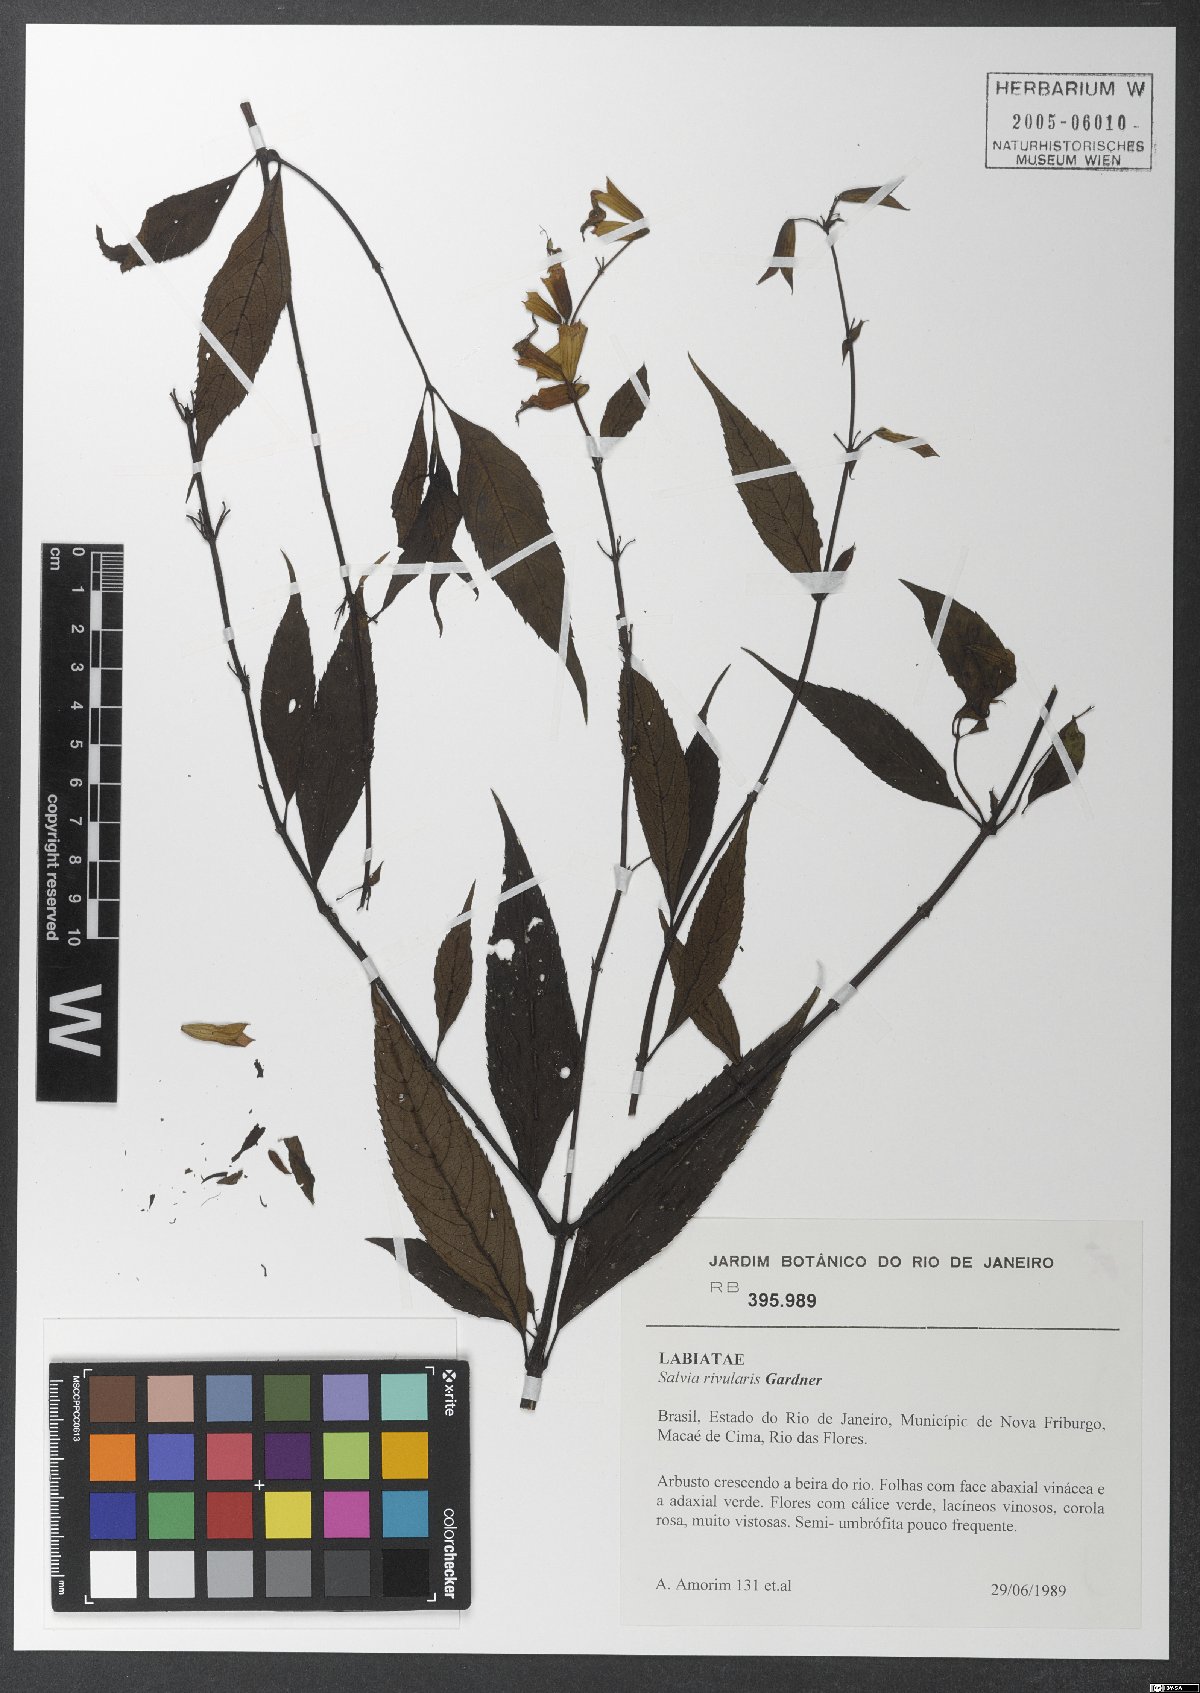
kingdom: Plantae
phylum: Tracheophyta
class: Magnoliopsida
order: Lamiales
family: Lamiaceae
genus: Salvia
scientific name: Salvia rivularis
